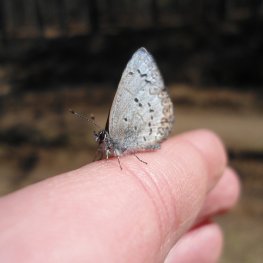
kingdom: Animalia
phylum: Arthropoda
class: Insecta
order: Lepidoptera
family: Lycaenidae
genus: Celastrina
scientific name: Celastrina lucia
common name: Northern Spring Azure
